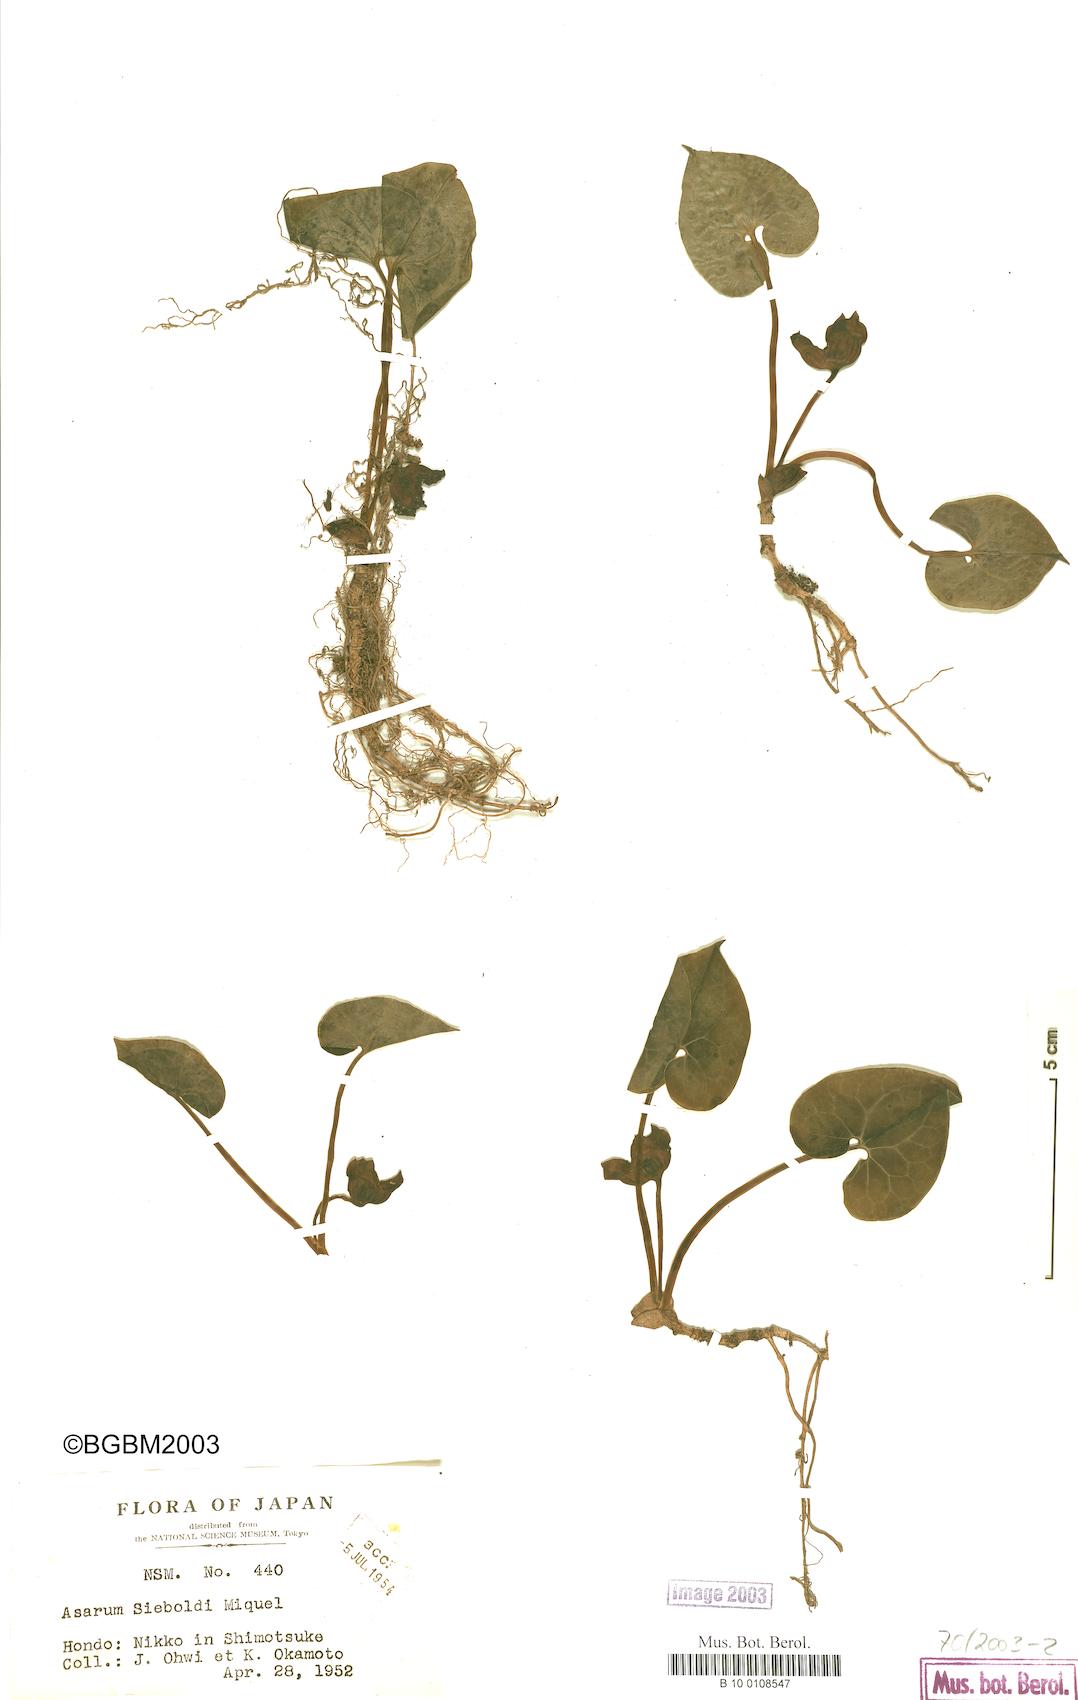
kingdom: Plantae
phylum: Tracheophyta
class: Magnoliopsida
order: Piperales
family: Aristolochiaceae
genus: Asarum
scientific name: Asarum sieboldii
